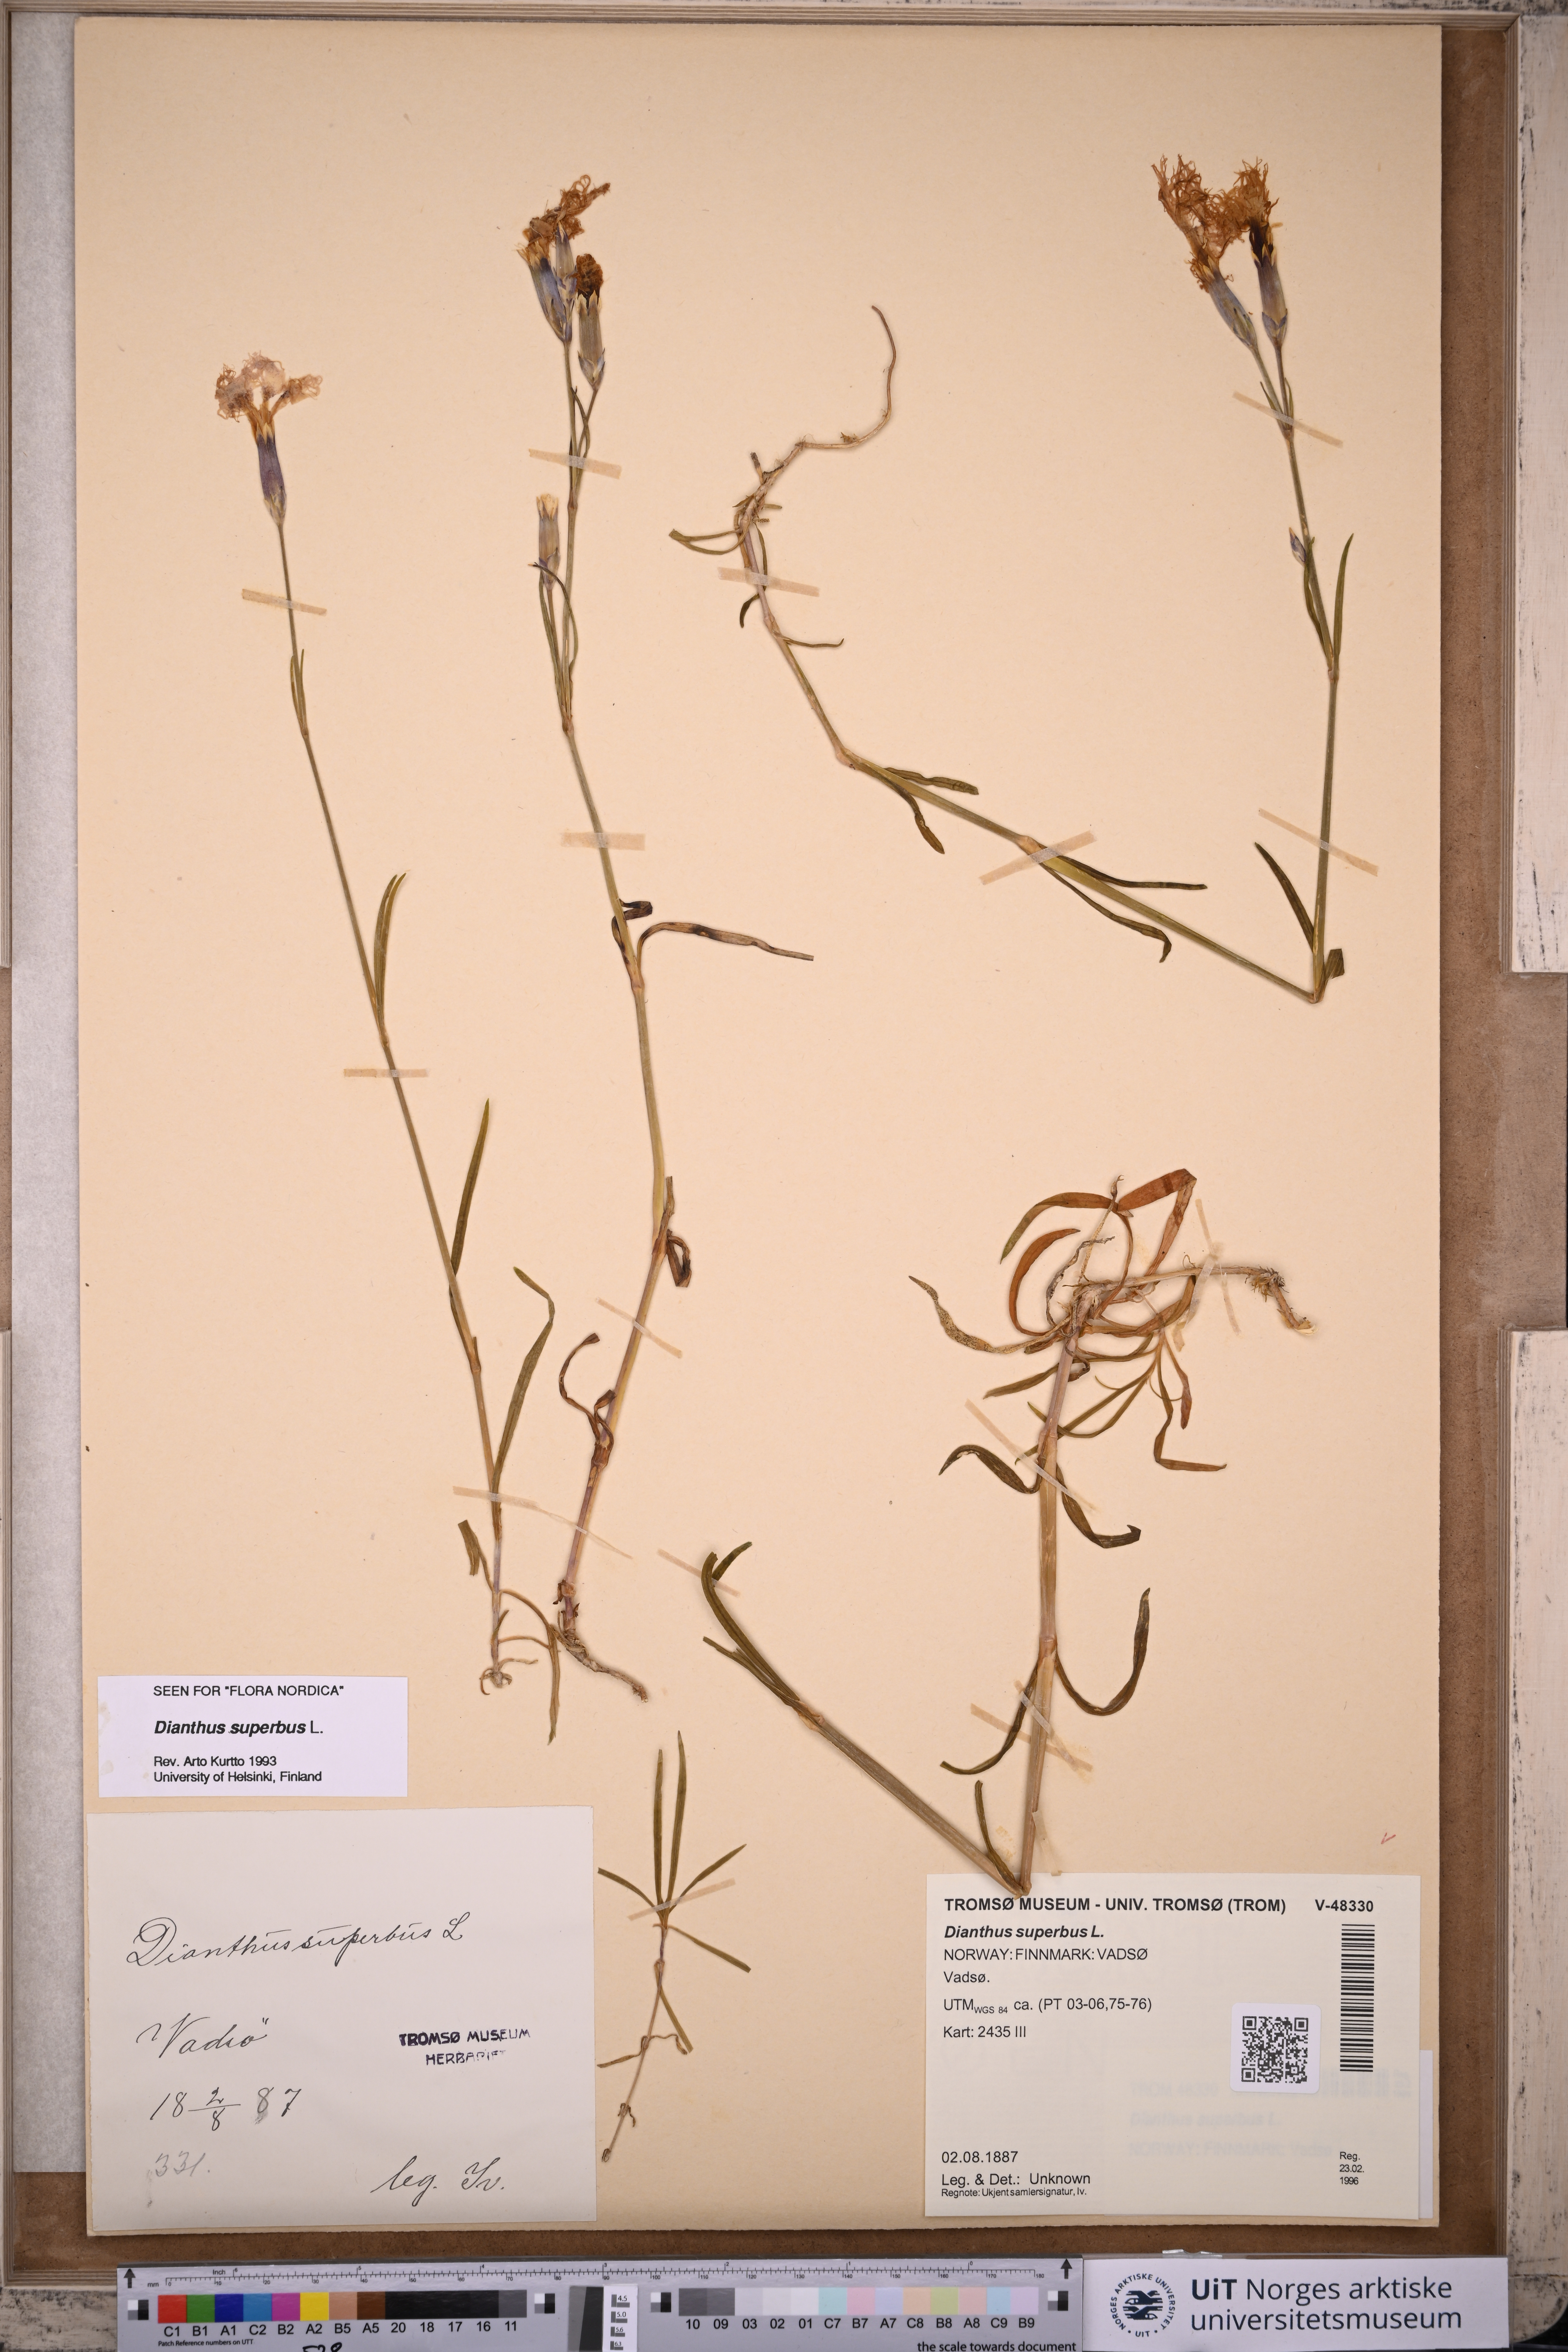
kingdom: Plantae
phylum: Tracheophyta
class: Magnoliopsida
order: Caryophyllales
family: Caryophyllaceae
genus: Dianthus
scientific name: Dianthus superbus
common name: Fringed pink
